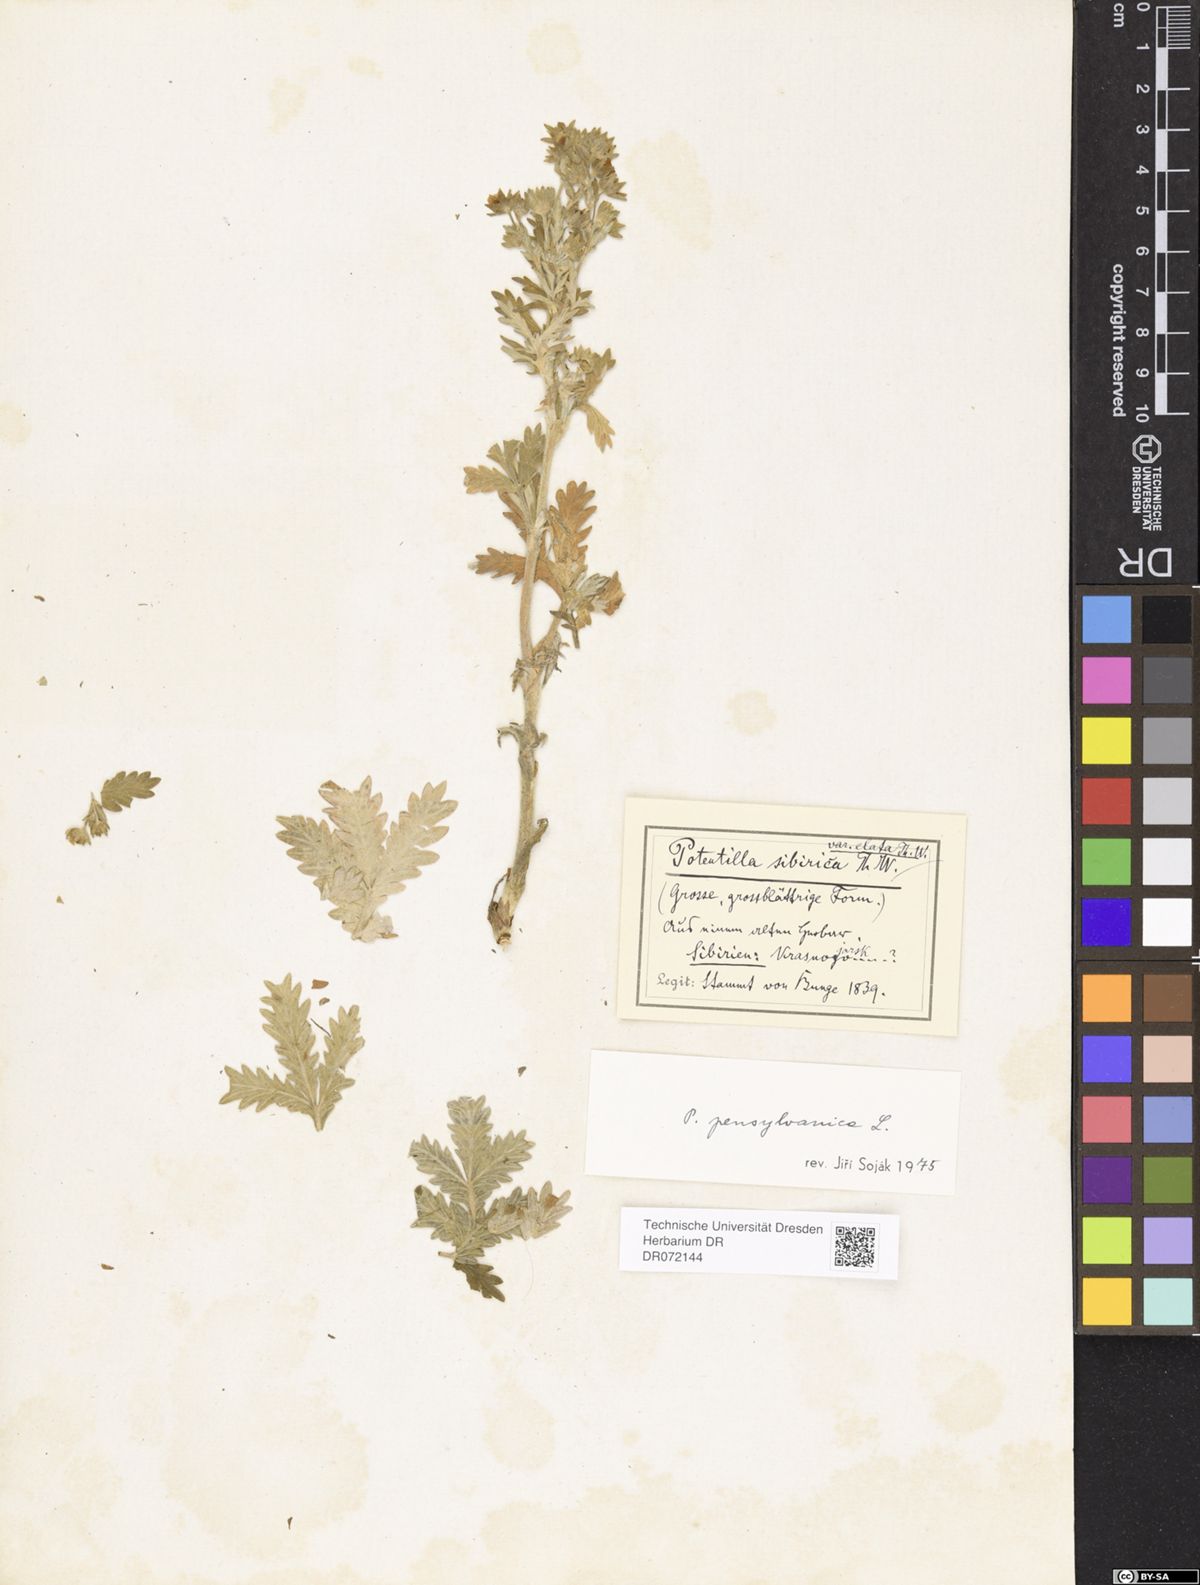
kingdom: Plantae
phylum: Tracheophyta
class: Magnoliopsida
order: Rosales
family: Rosaceae
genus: Potentilla
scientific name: Potentilla pensylvanica
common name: Pennsylvania cinquefoil
